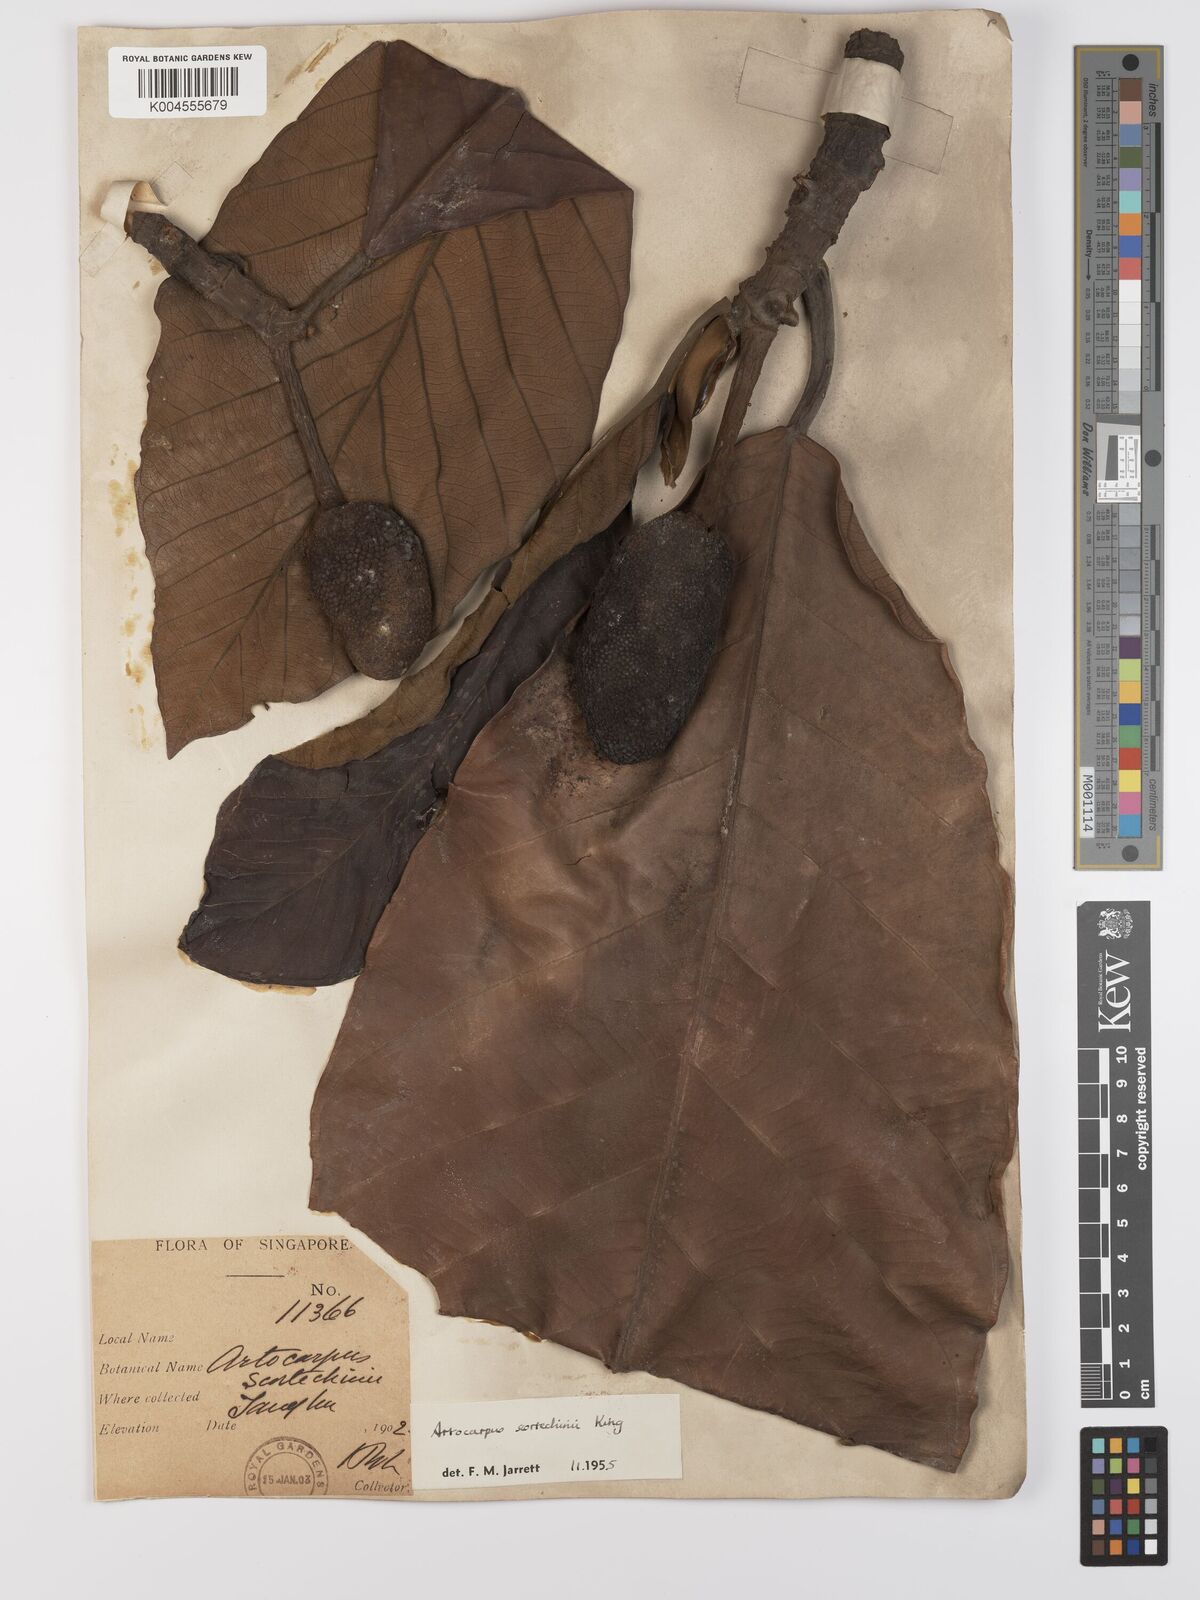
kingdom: Plantae
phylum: Tracheophyta
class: Magnoliopsida
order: Rosales
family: Moraceae
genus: Artocarpus
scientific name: Artocarpus elasticus
